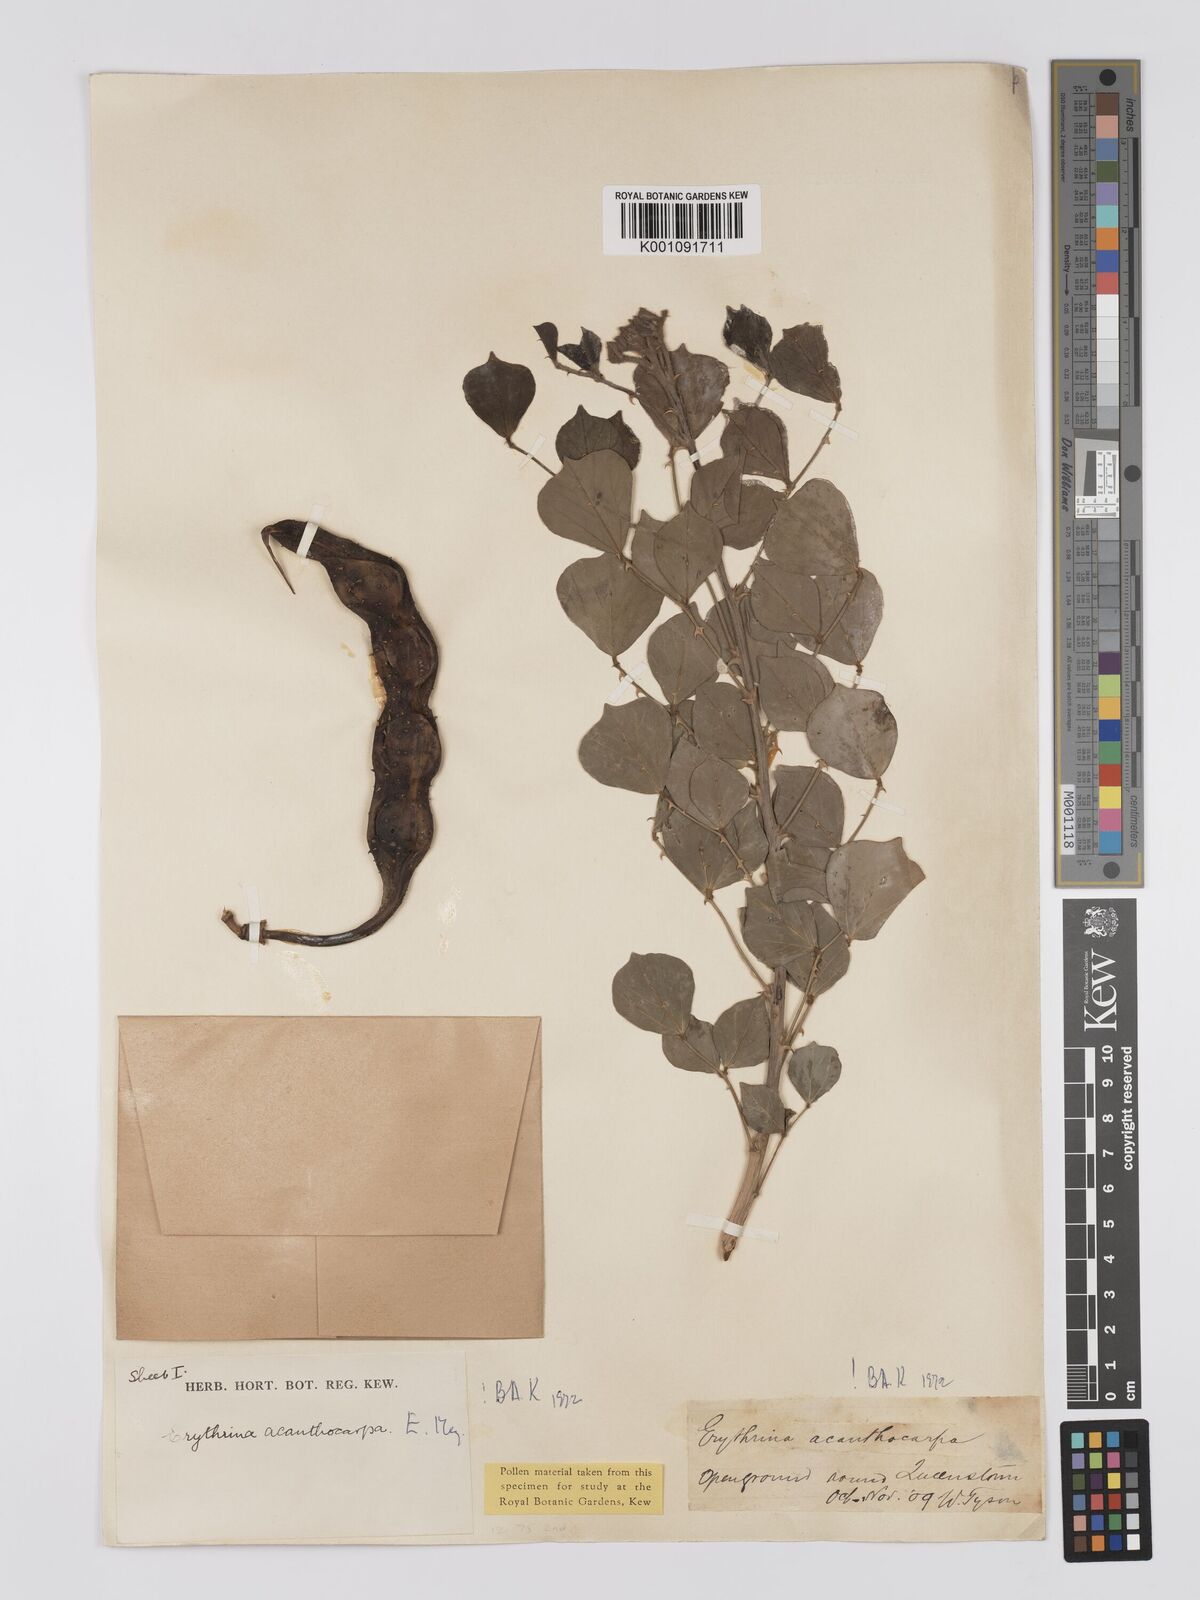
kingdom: Plantae
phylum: Tracheophyta
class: Magnoliopsida
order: Fabales
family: Fabaceae
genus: Erythrina
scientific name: Erythrina acanthocarpa
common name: Thorny coraltree
